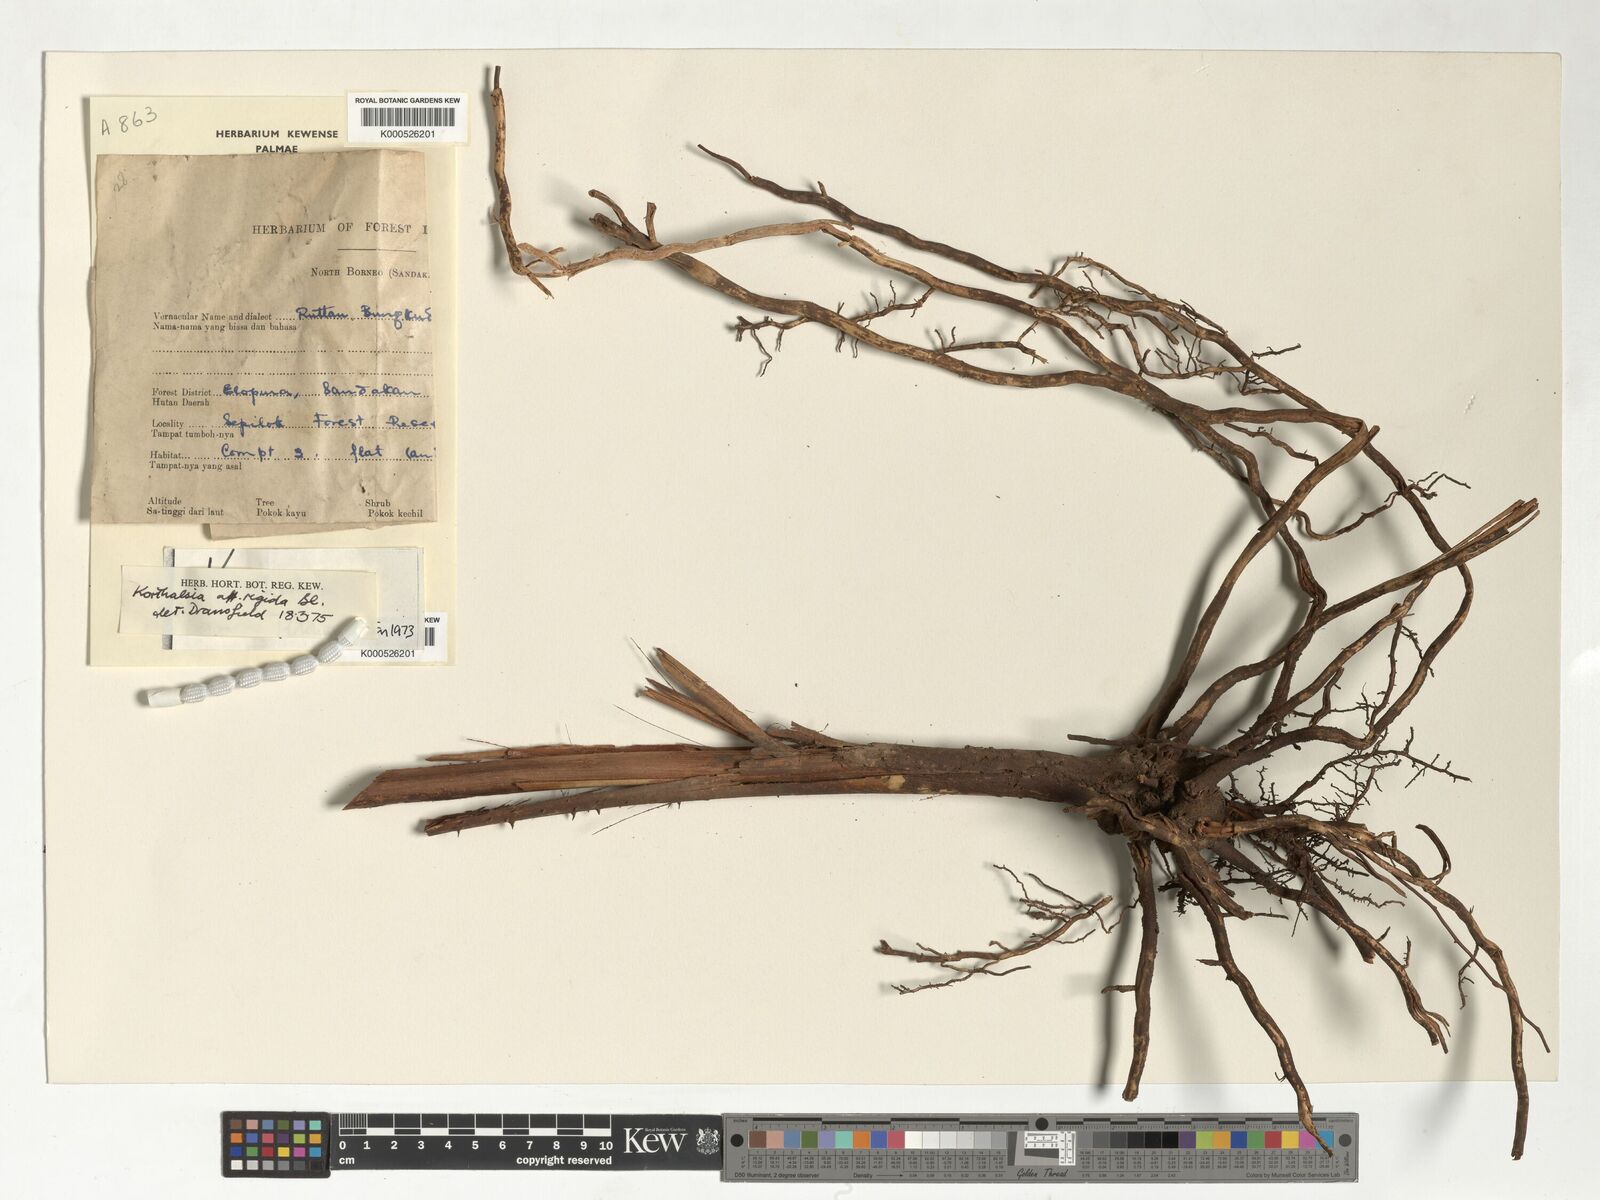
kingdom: Plantae
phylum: Tracheophyta
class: Liliopsida
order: Arecales
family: Arecaceae
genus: Korthalsia
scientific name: Korthalsia rigida
